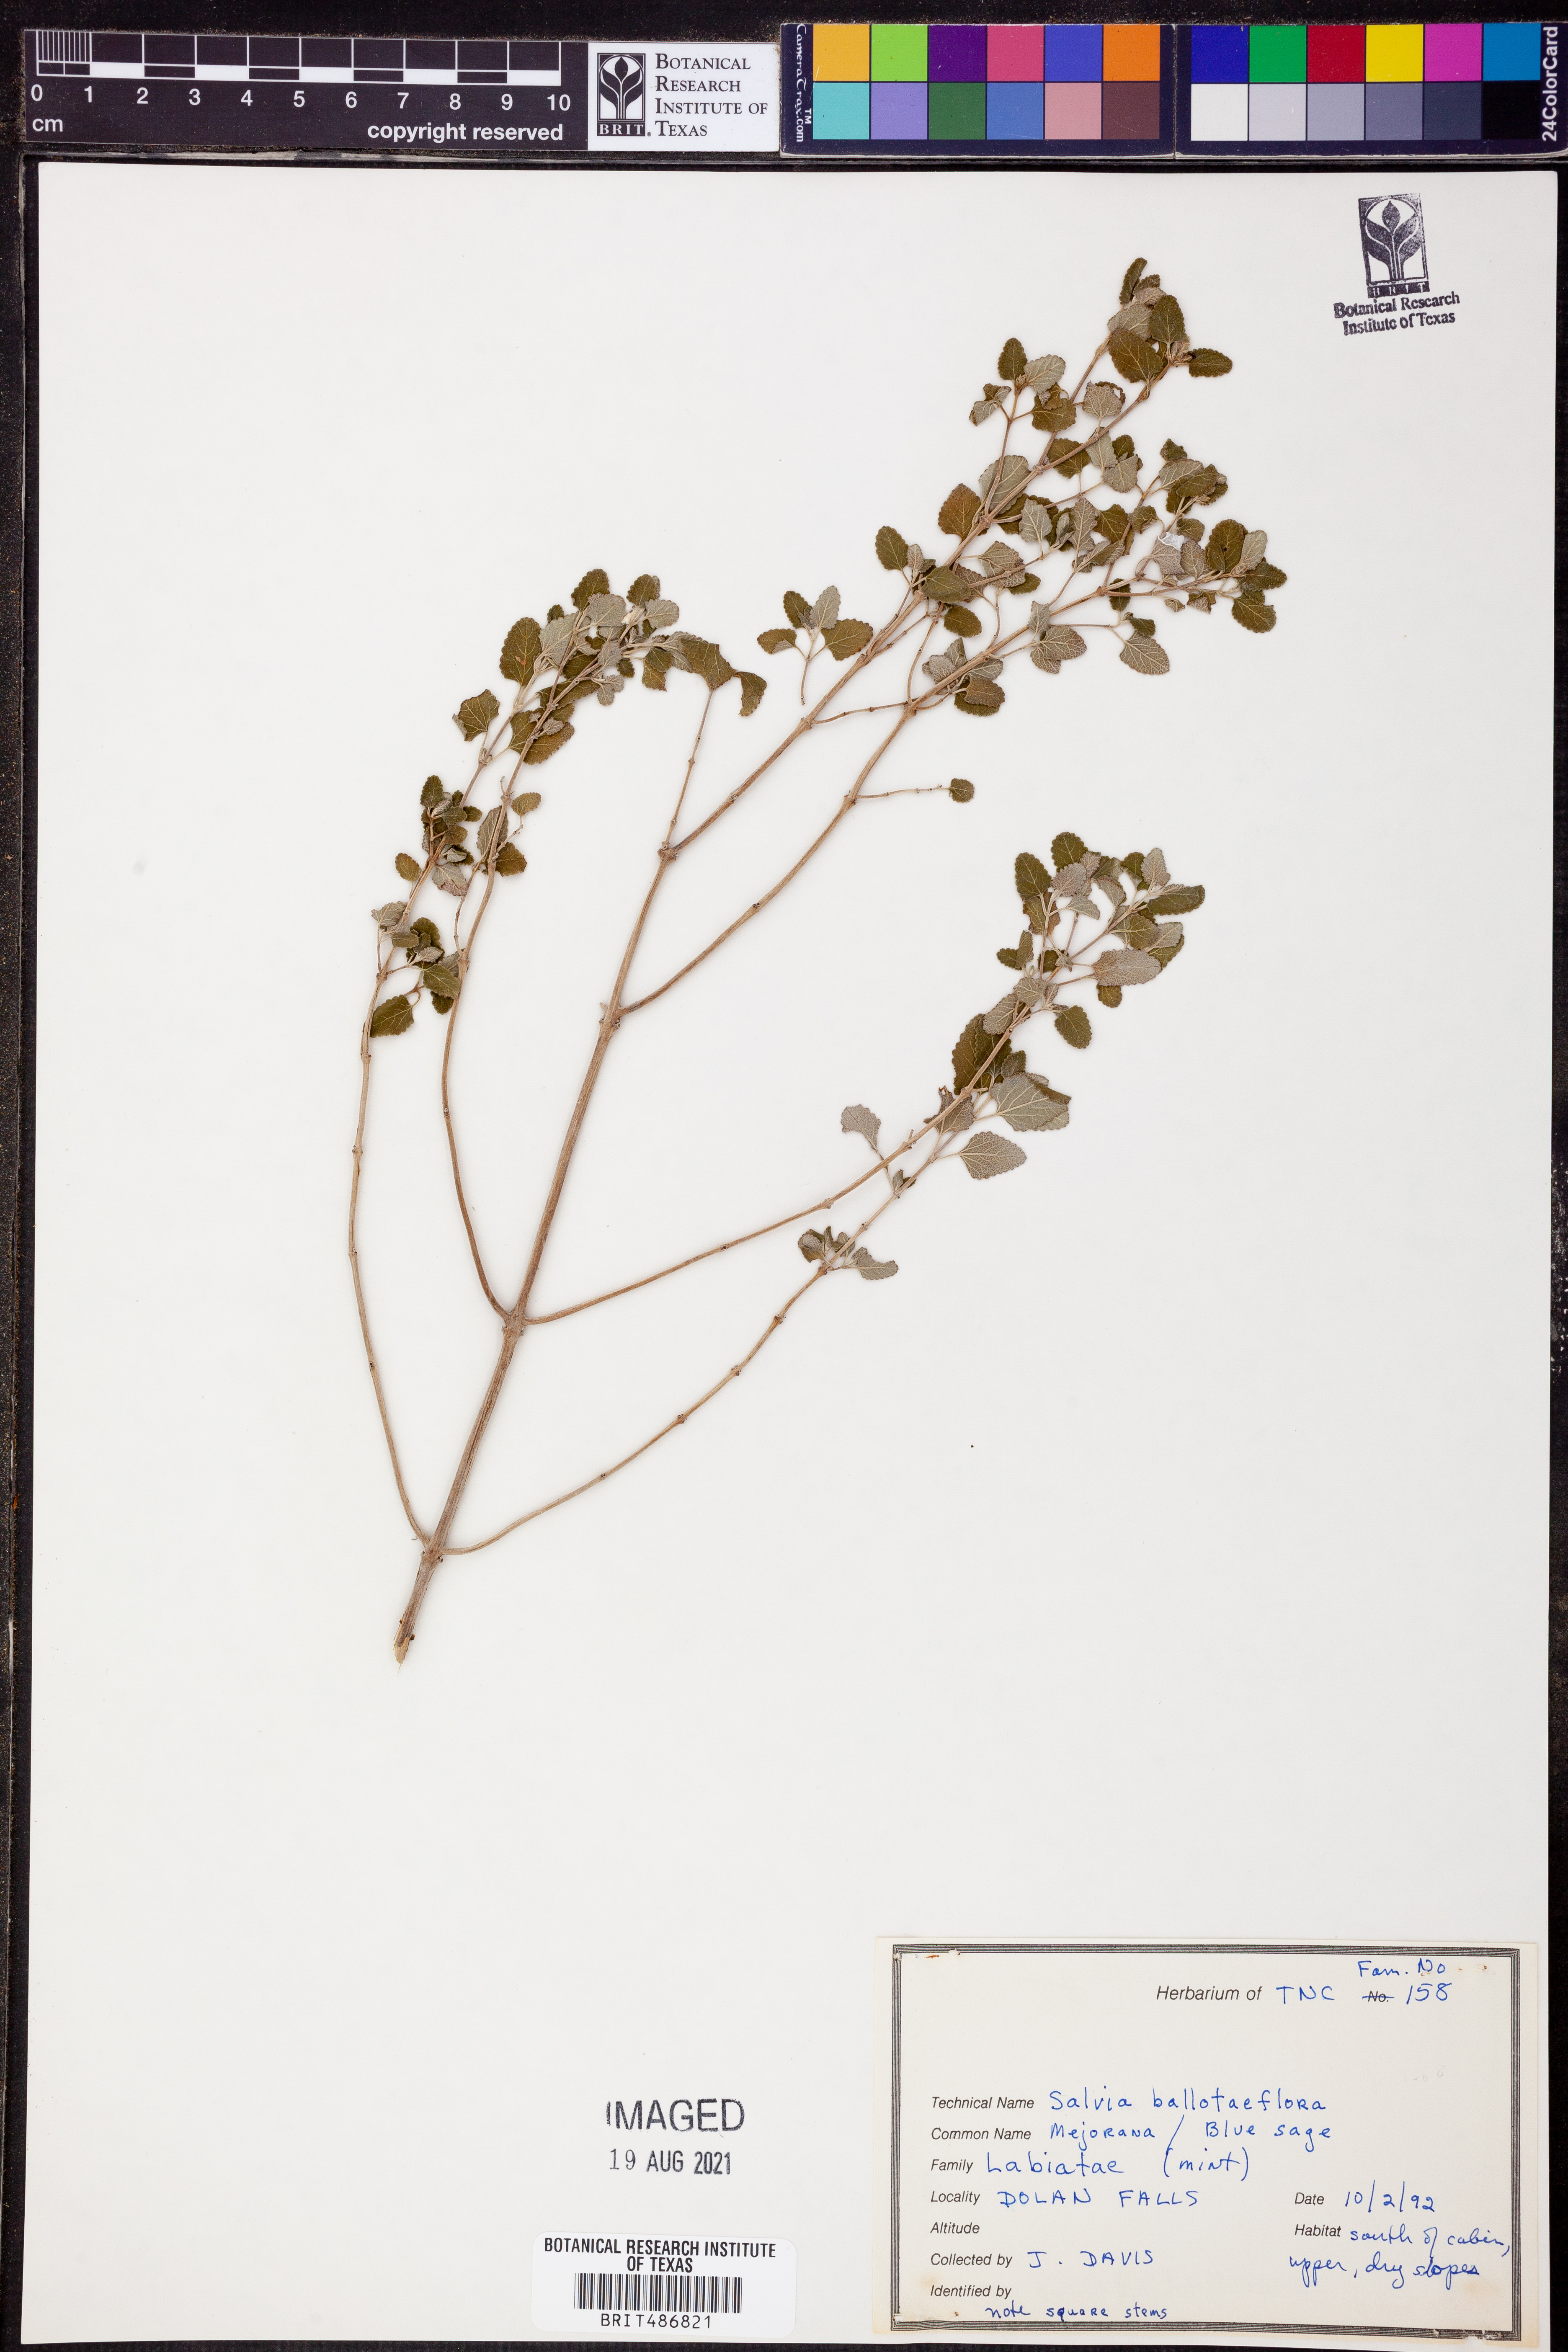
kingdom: Plantae
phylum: Tracheophyta
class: Magnoliopsida
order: Lamiales
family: Lamiaceae
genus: Salvia
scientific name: Salvia ballotiflora
